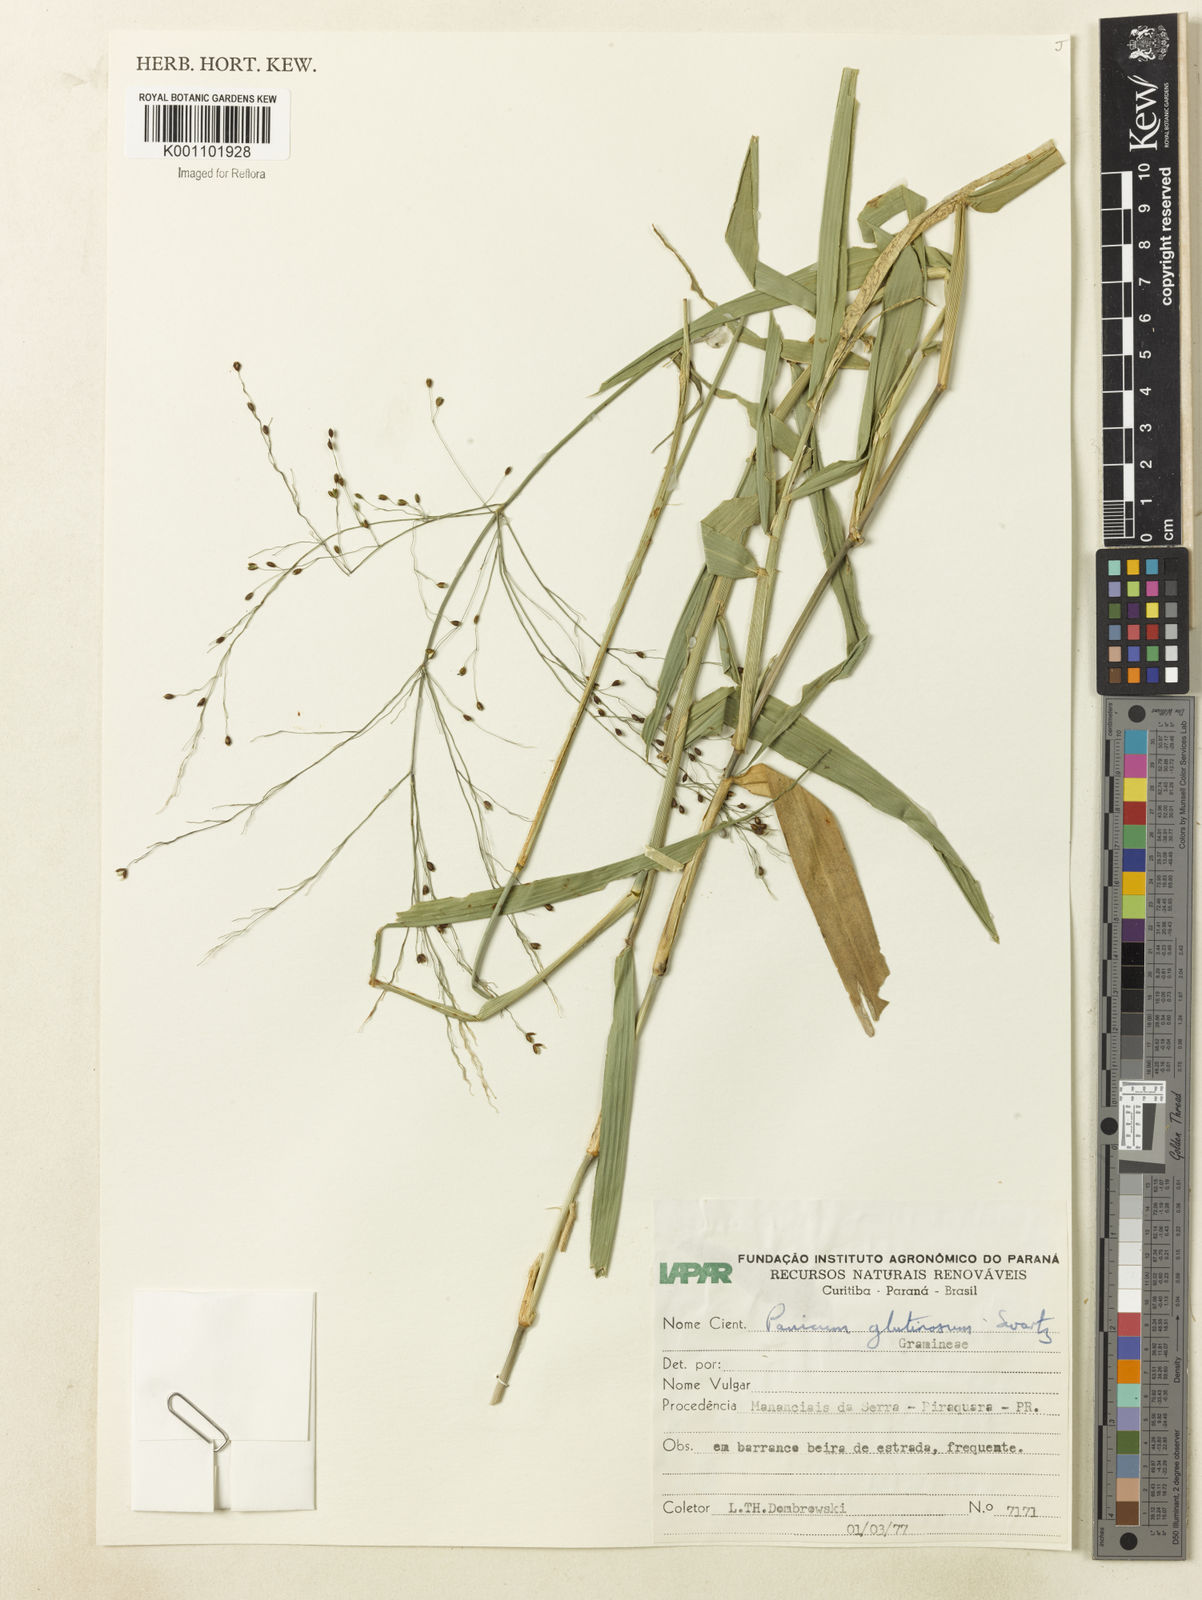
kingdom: Plantae
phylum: Tracheophyta
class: Liliopsida
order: Poales
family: Poaceae
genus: Homolepis
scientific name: Homolepis glutinosa
